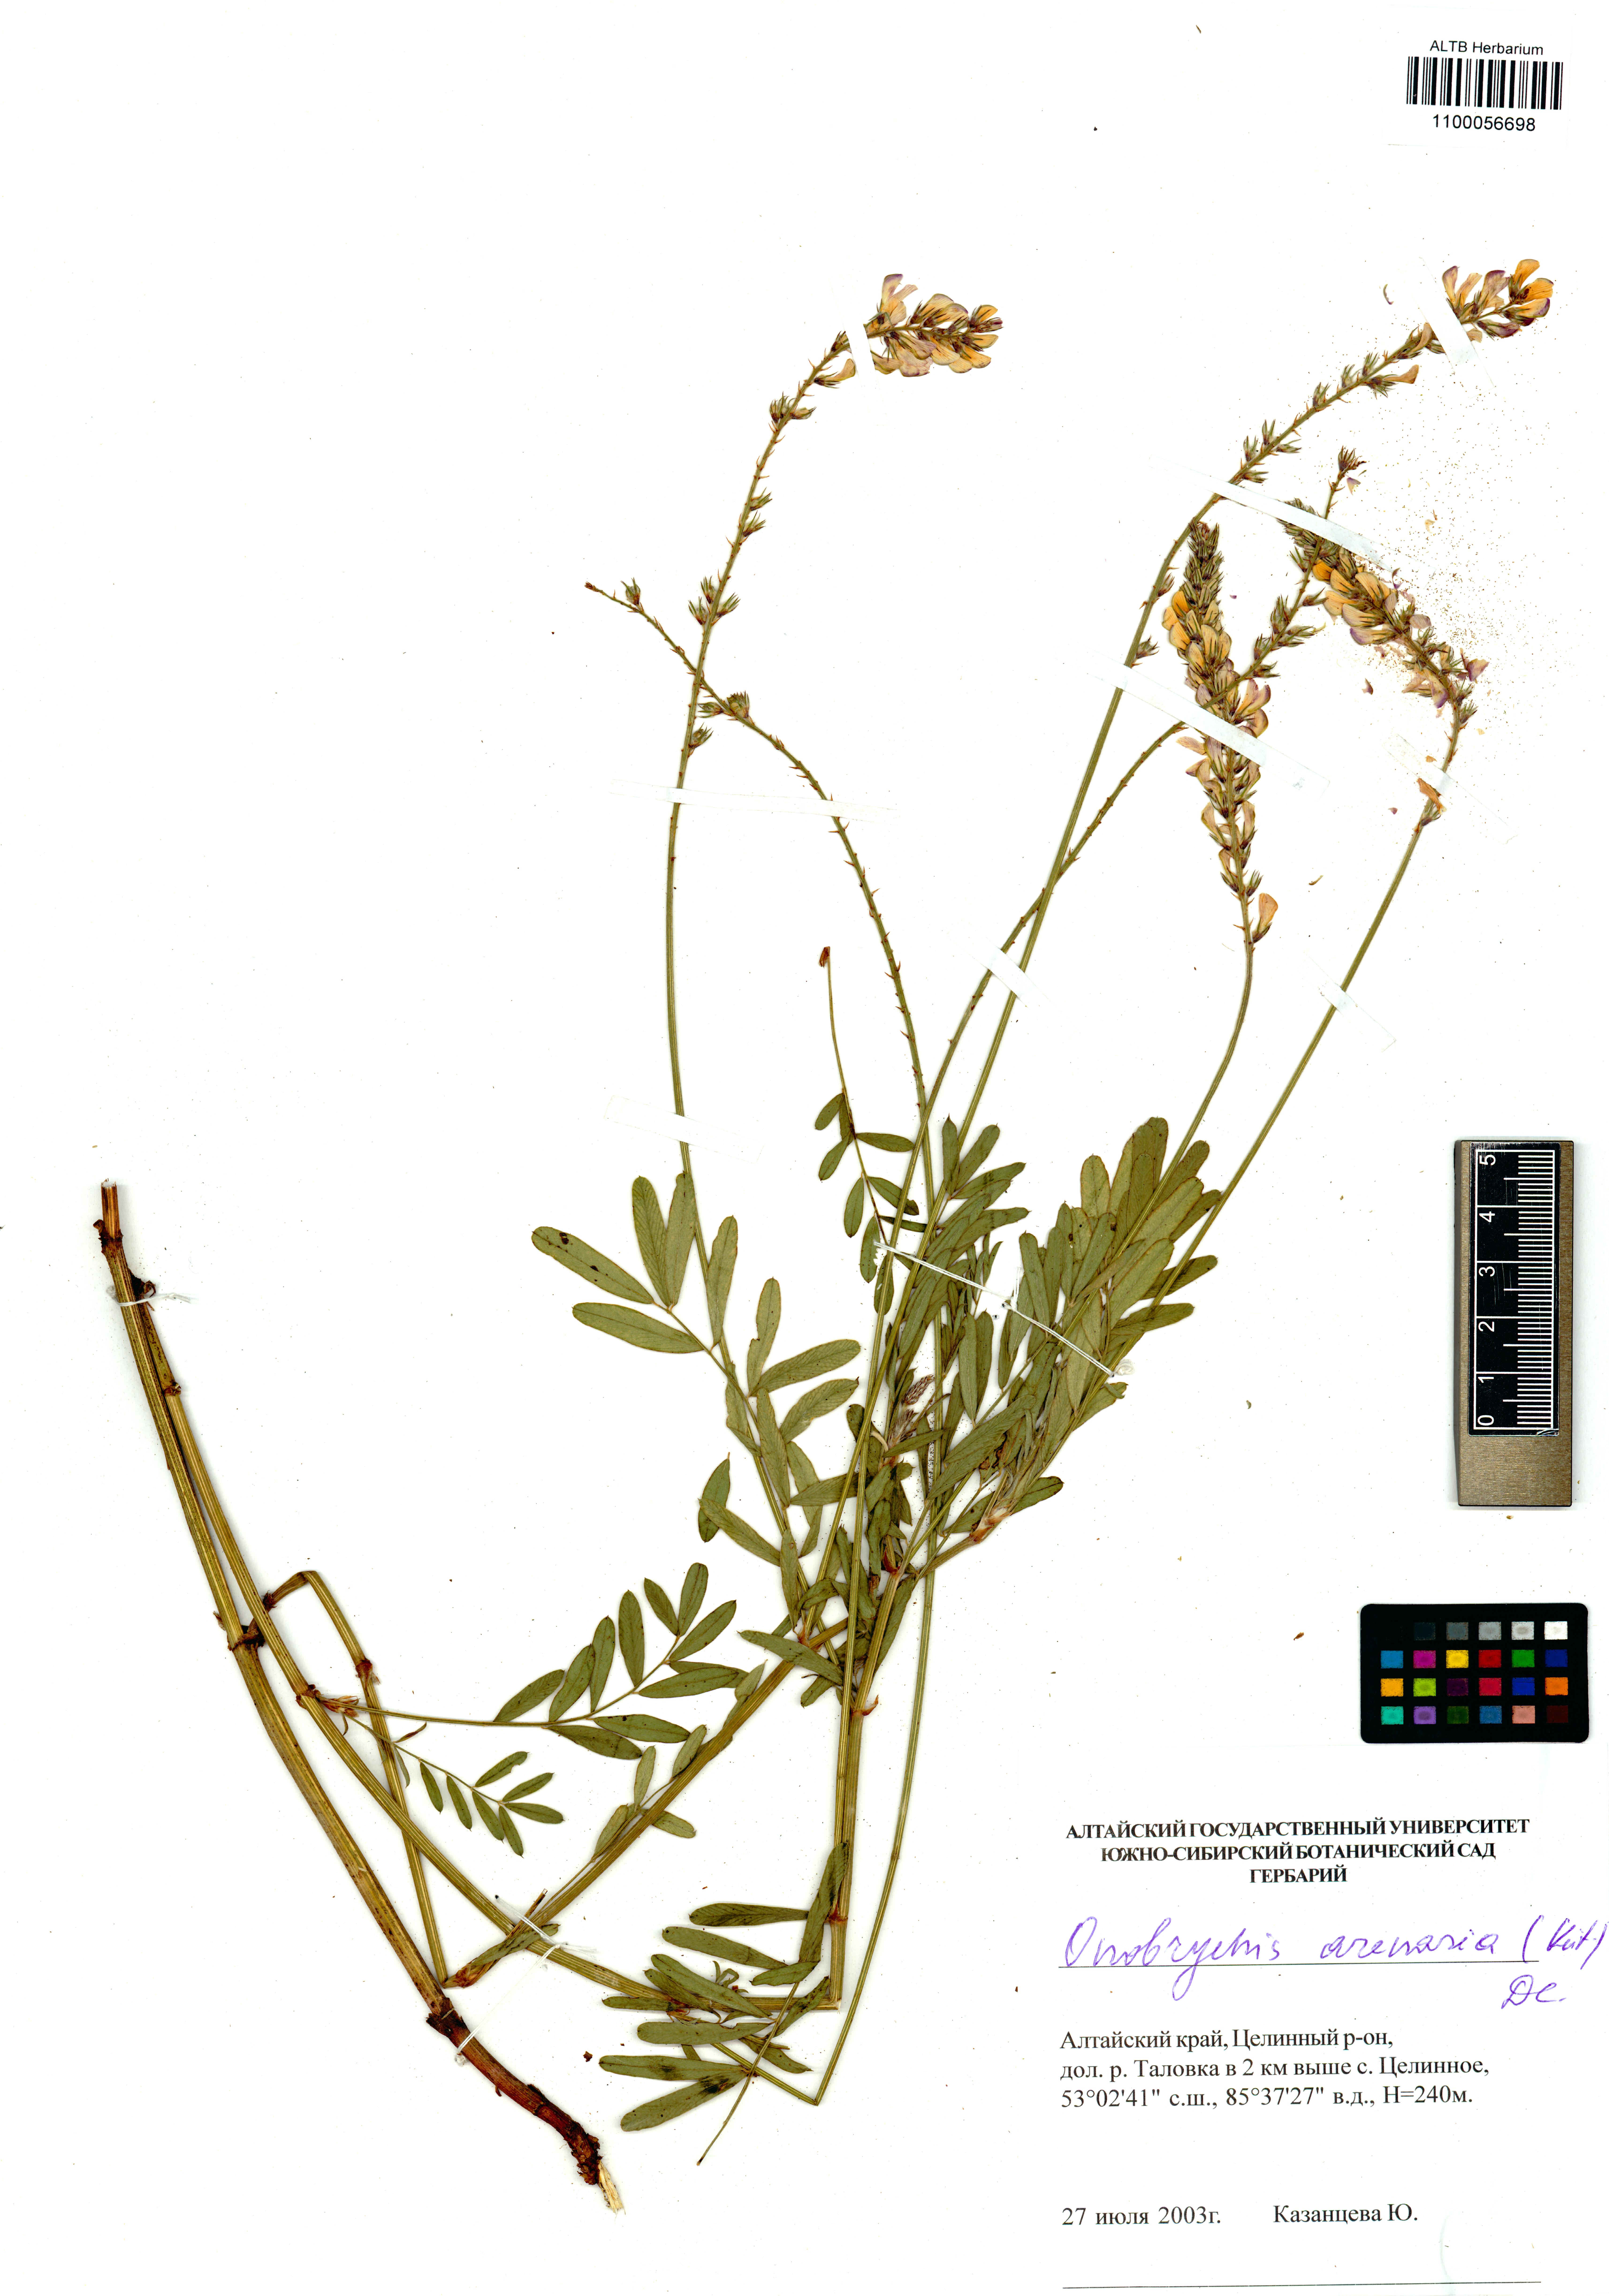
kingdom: Plantae
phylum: Tracheophyta
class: Magnoliopsida
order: Fabales
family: Fabaceae
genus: Onobrychis
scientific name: Onobrychis arenaria
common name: Sand esparcet
